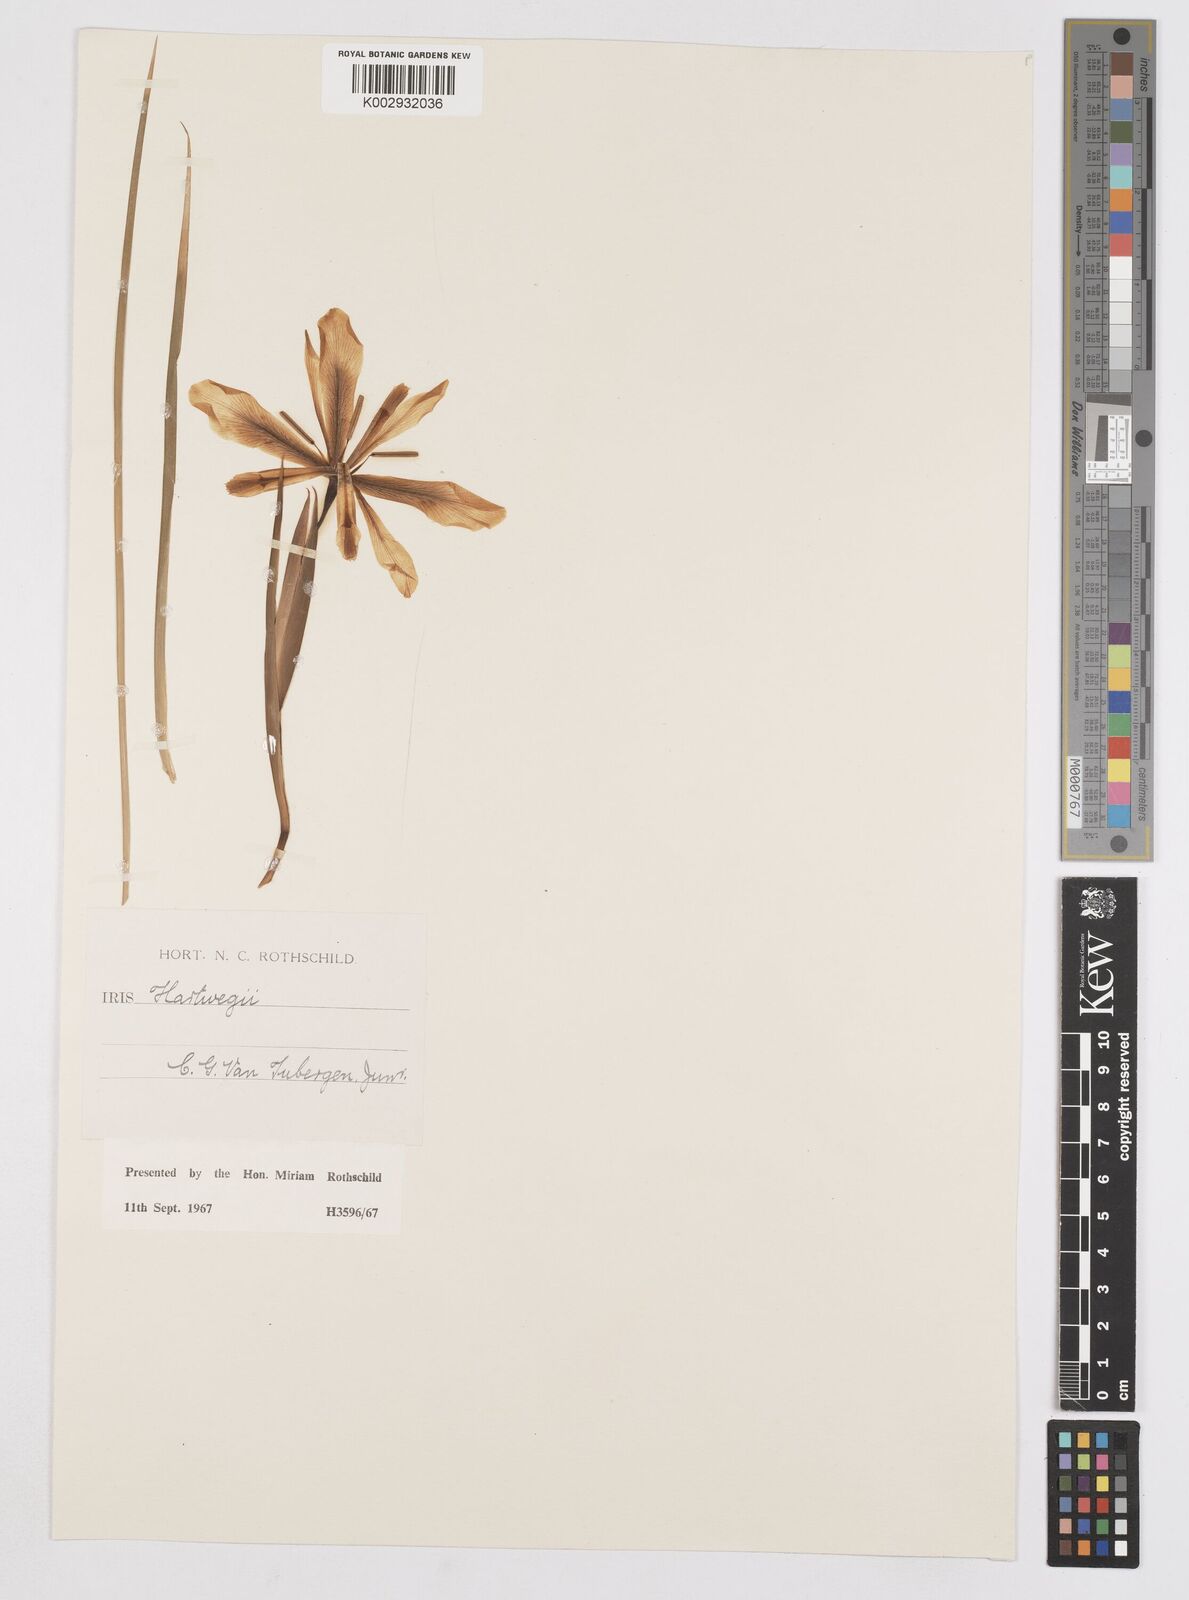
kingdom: Plantae
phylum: Tracheophyta
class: Liliopsida
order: Asparagales
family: Iridaceae
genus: Iris
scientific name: Iris hartwegii
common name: Sierra iris
